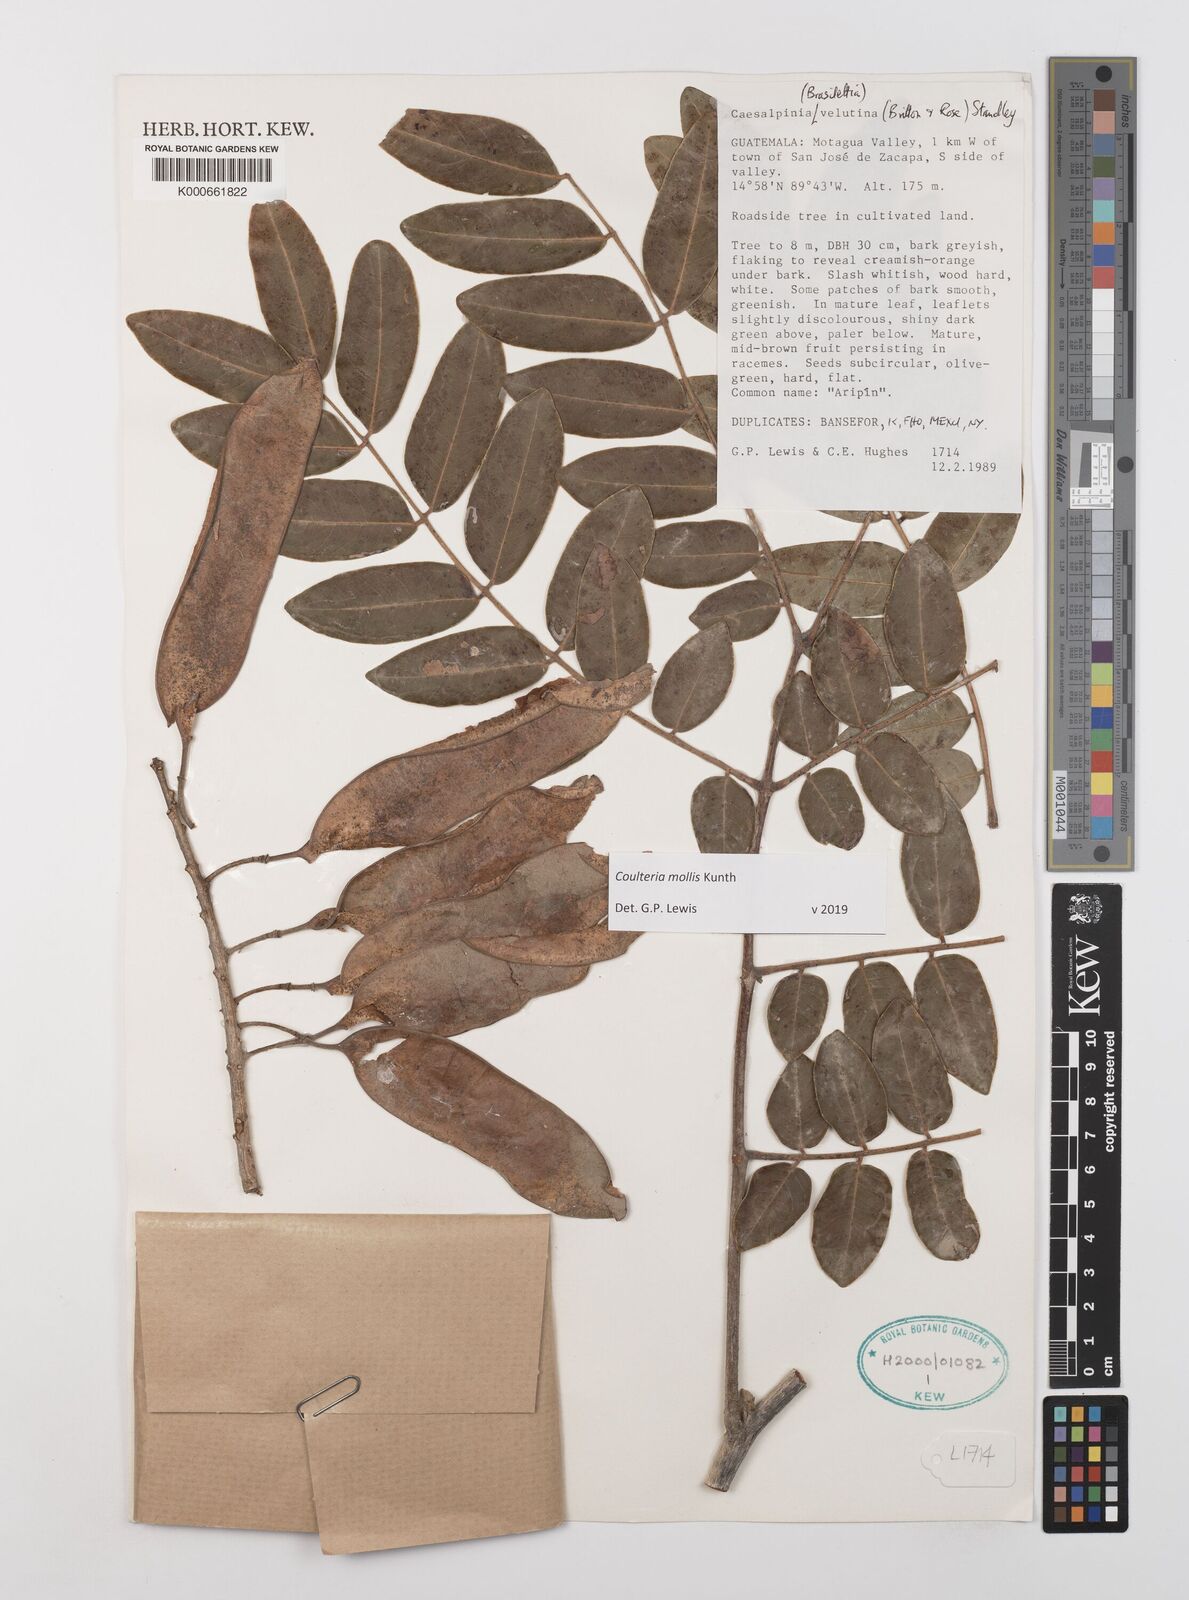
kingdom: Plantae
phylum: Tracheophyta
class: Magnoliopsida
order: Fabales
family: Fabaceae
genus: Coulteria
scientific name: Coulteria velutina
